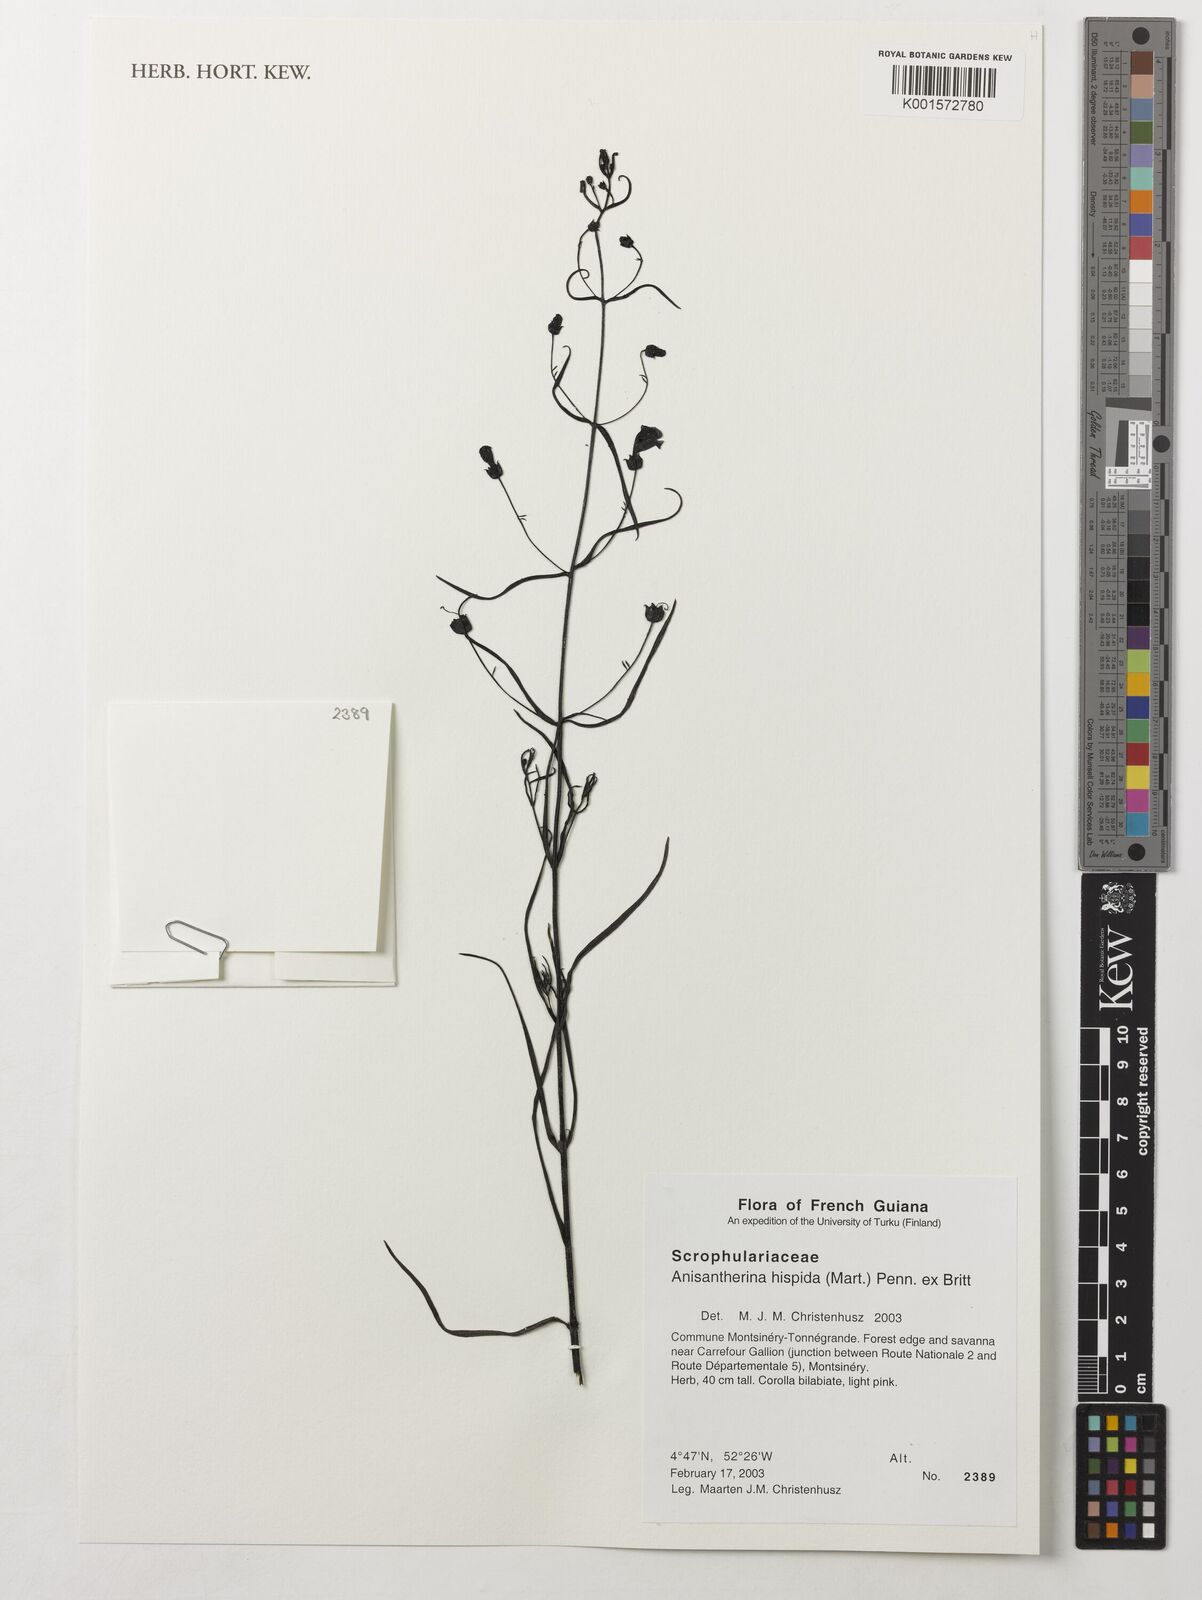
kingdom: Plantae
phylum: Tracheophyta
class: Magnoliopsida
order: Lamiales
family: Orobanchaceae
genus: Agalinis
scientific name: Agalinis hispidula
